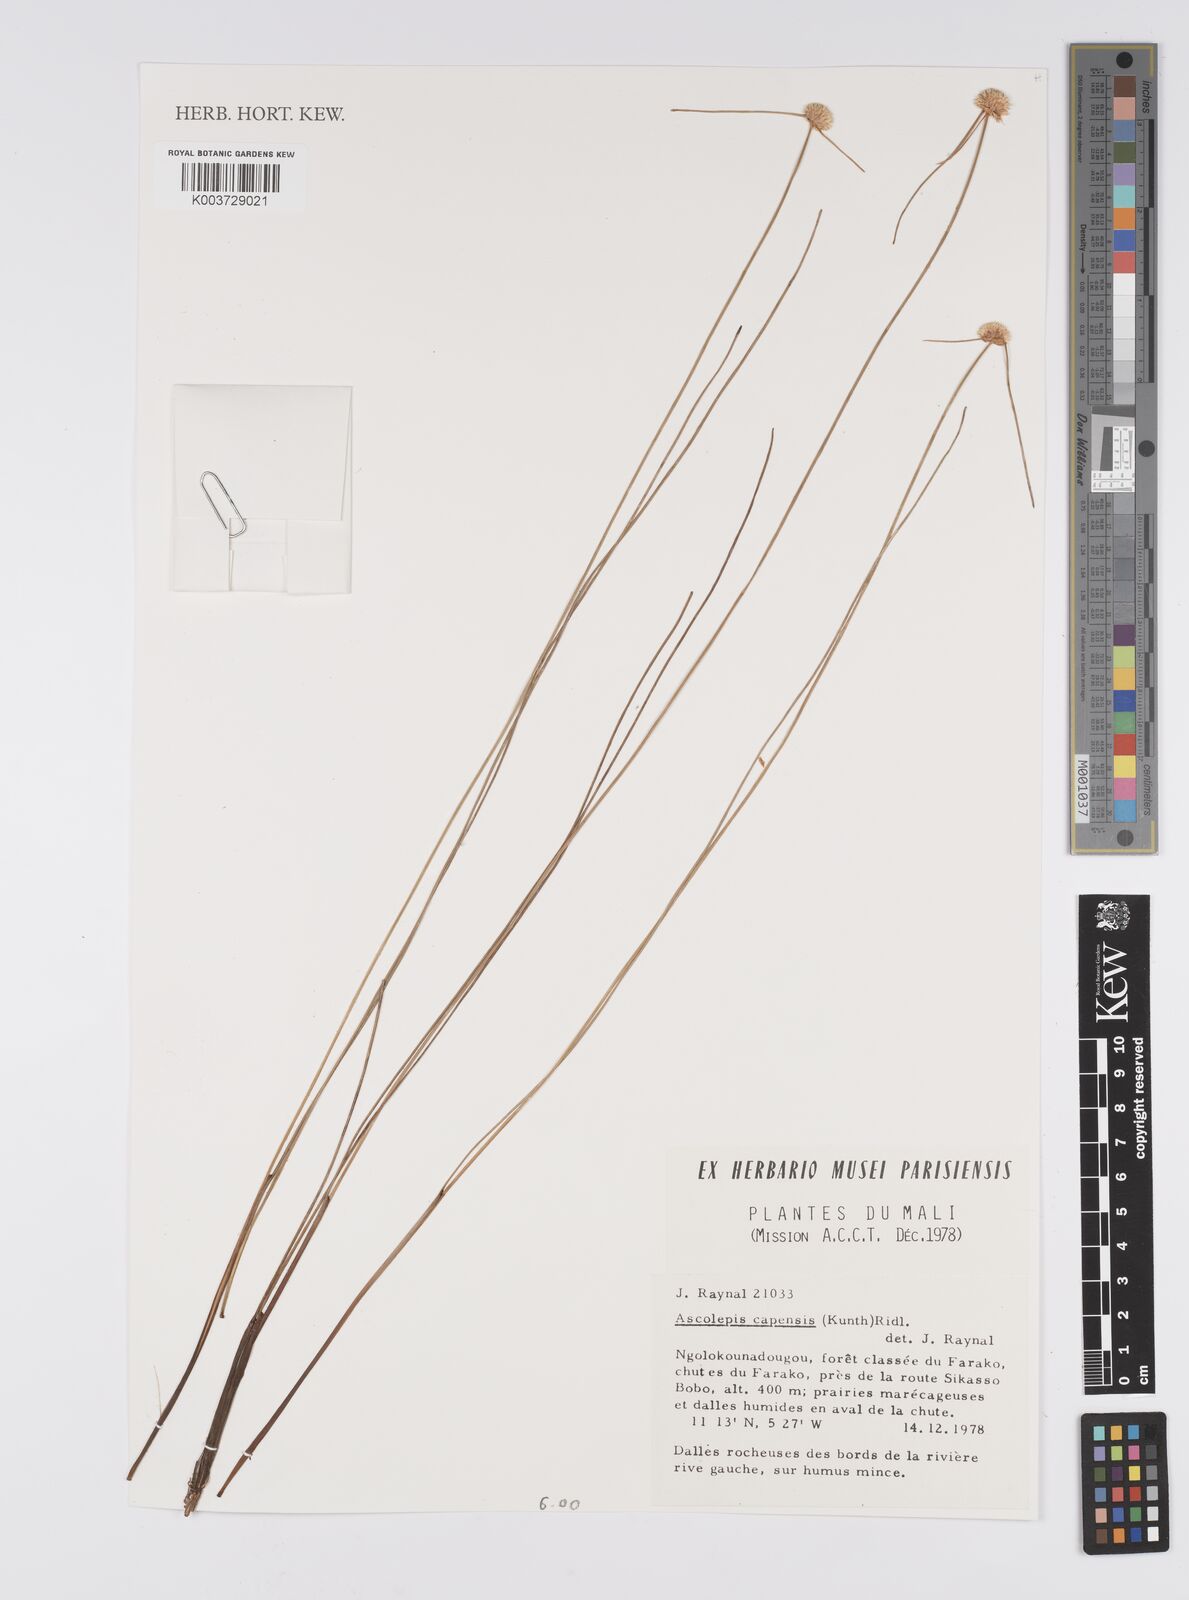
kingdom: Plantae
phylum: Tracheophyta
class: Liliopsida
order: Poales
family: Cyperaceae
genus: Ascolepis
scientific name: Ascolepis
